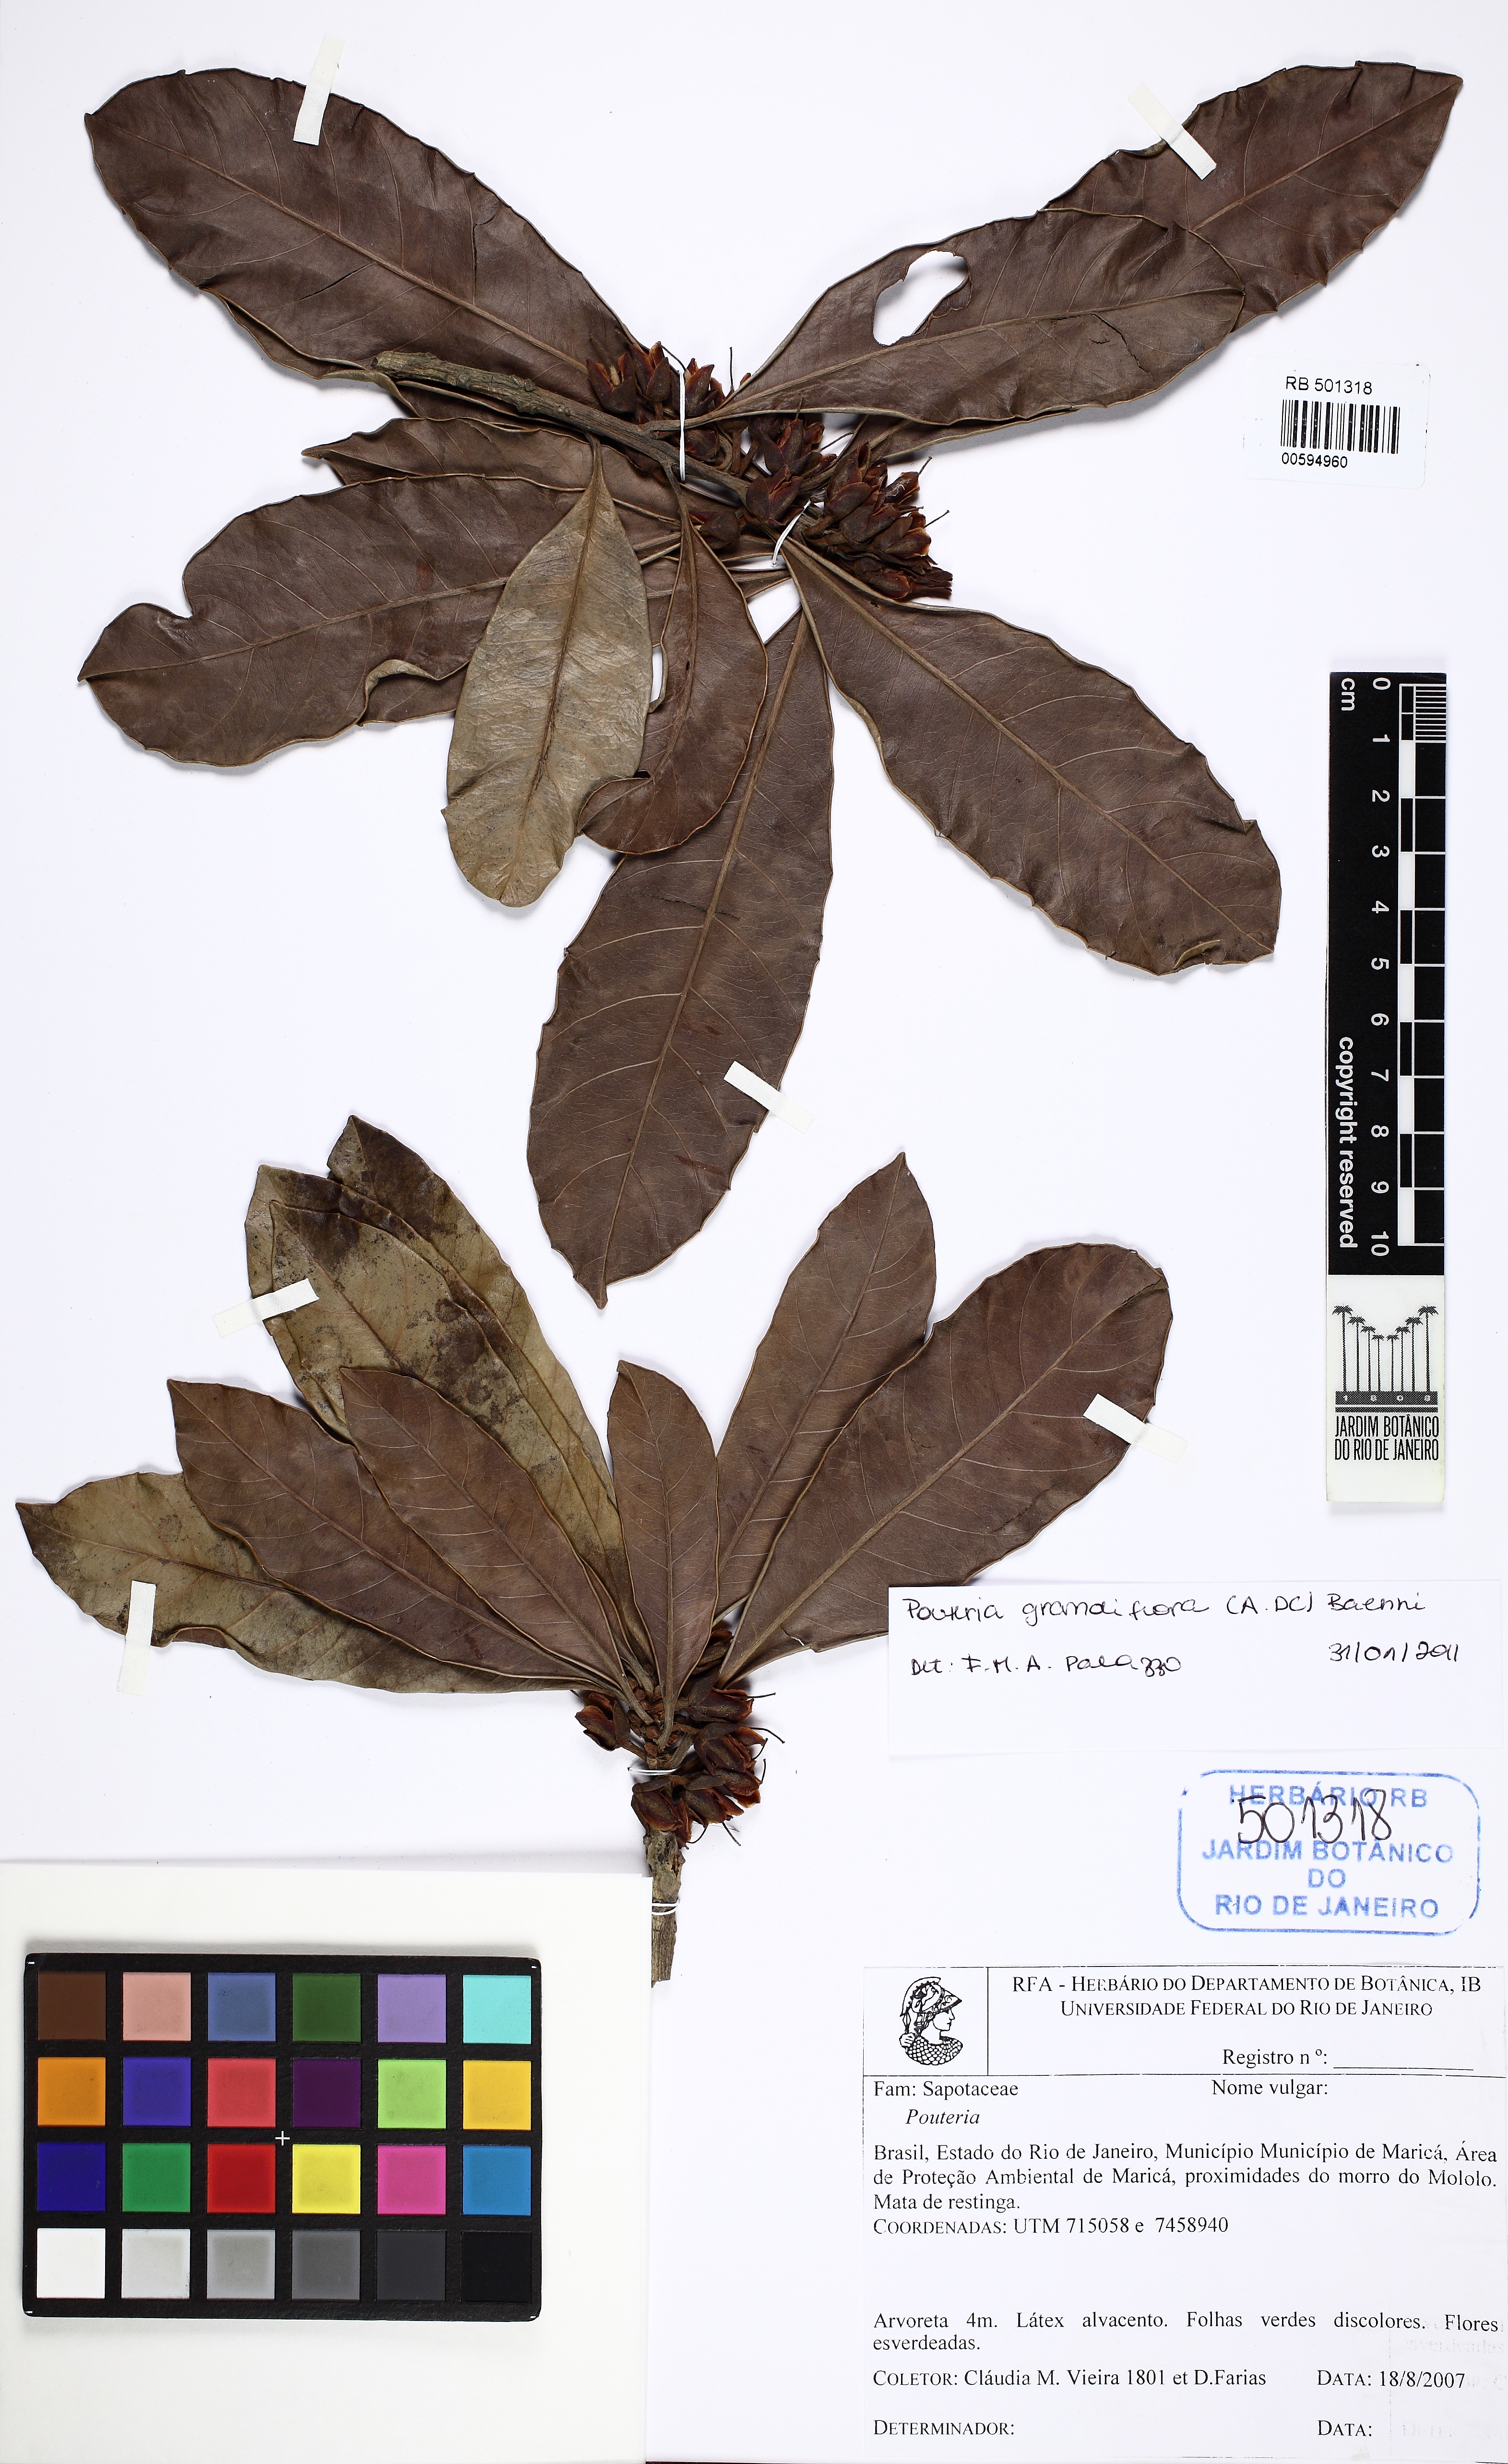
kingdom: Plantae
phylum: Tracheophyta
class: Magnoliopsida
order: Ericales
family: Sapotaceae
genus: Pouteria
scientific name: Pouteria grandiflora
